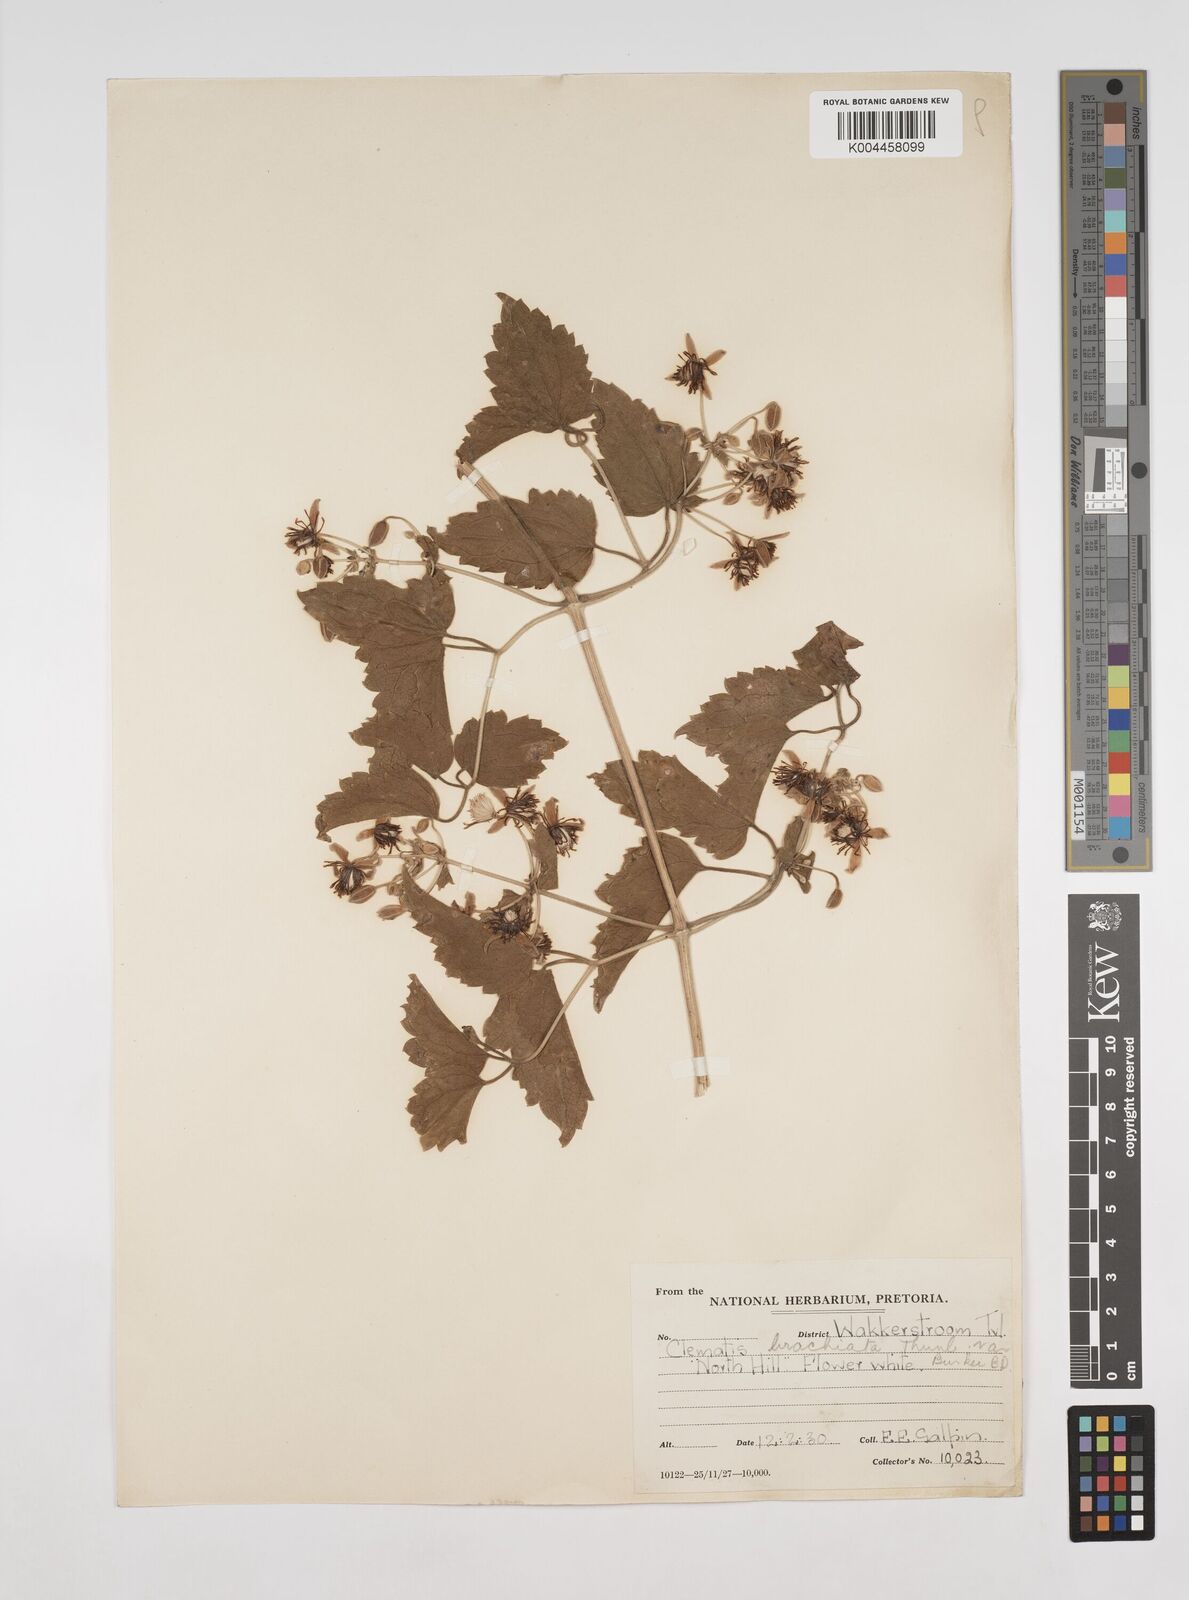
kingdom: Plantae
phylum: Tracheophyta
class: Magnoliopsida
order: Ranunculales
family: Ranunculaceae
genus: Clematis
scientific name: Clematis brachiata
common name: Traveler's-joy
